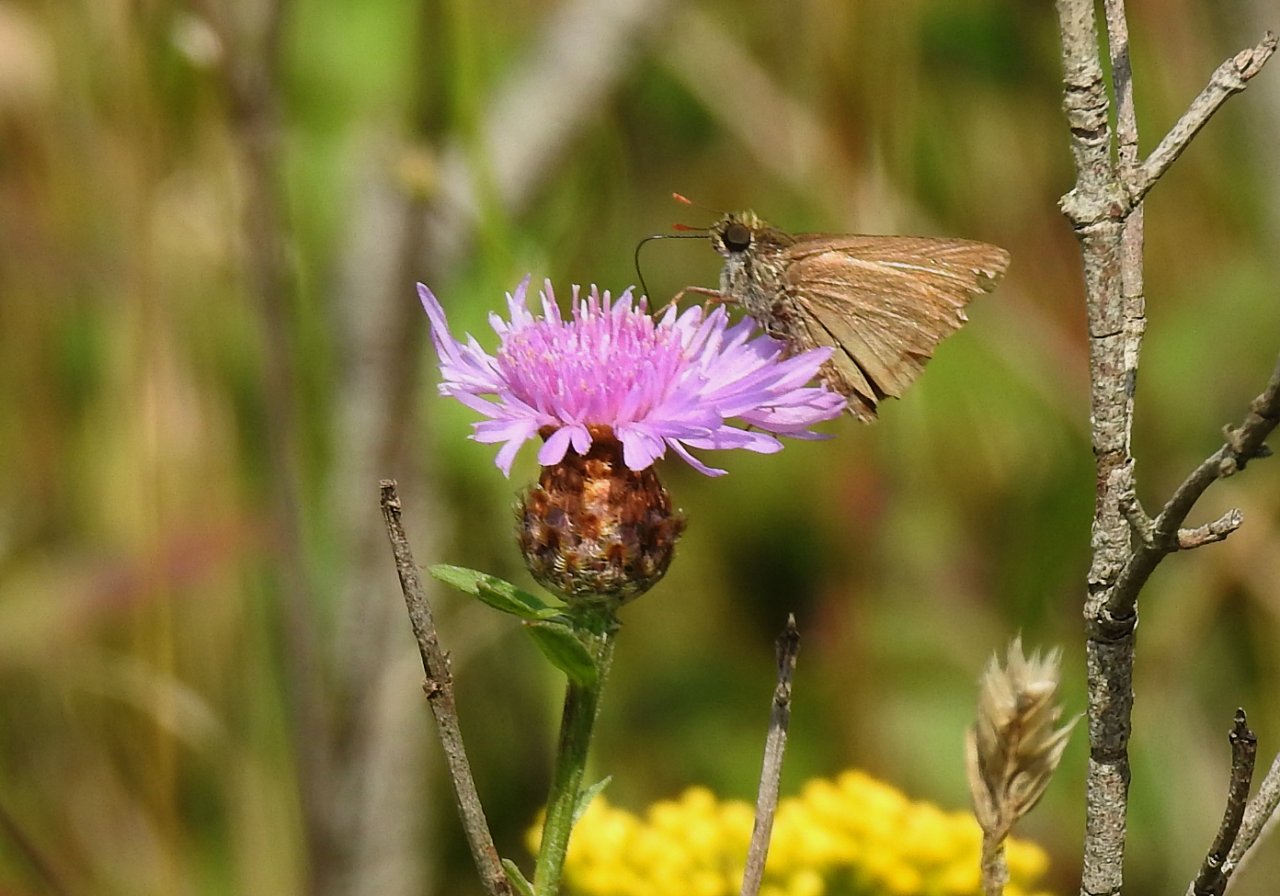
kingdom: Animalia
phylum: Arthropoda
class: Insecta
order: Lepidoptera
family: Hesperiidae
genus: Euphyes
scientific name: Euphyes vestris
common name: Dun Skipper
